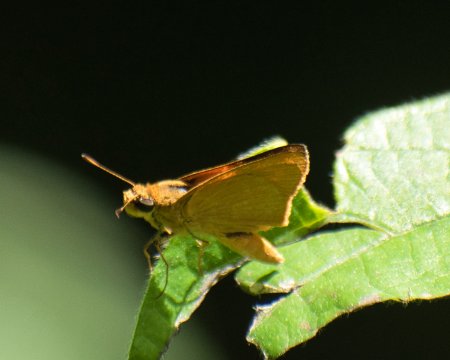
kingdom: Animalia
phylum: Arthropoda
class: Insecta
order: Lepidoptera
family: Hesperiidae
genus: Atrytone
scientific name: Atrytone Anatrytone mella
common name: Mella Skipper
